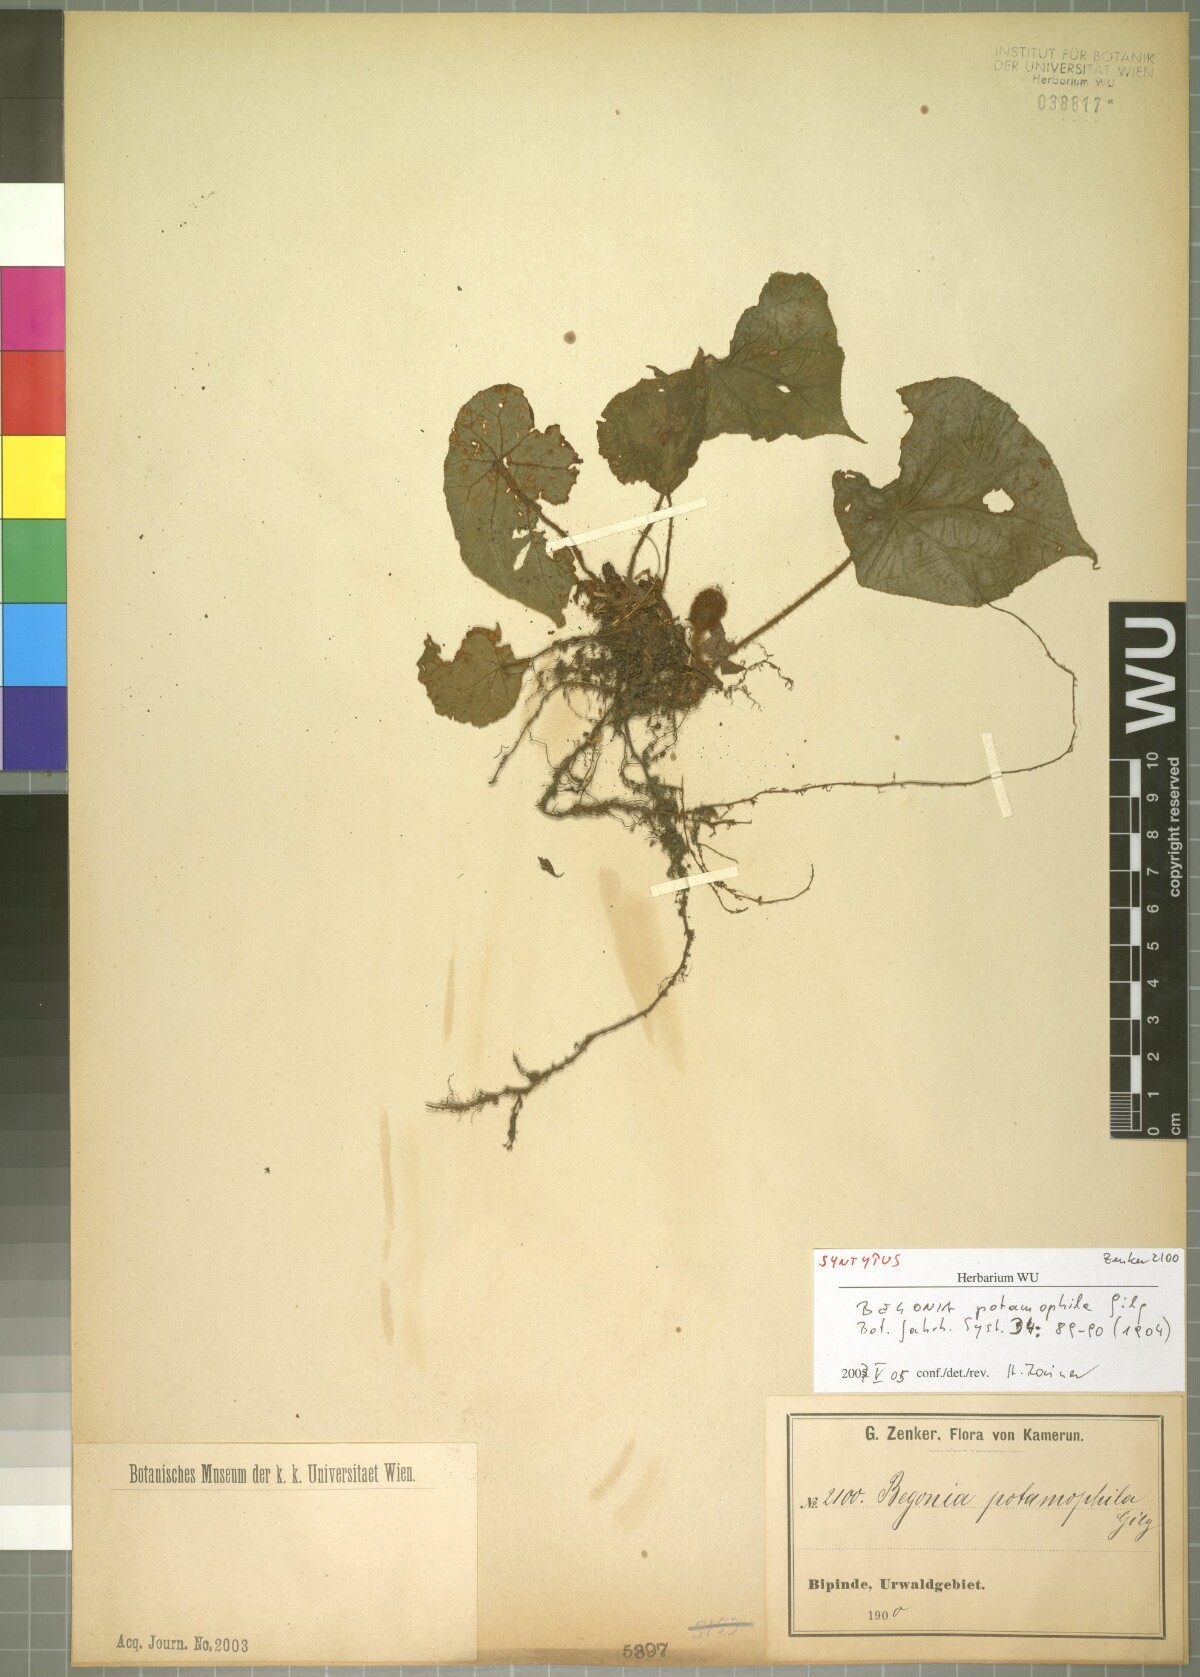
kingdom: Plantae
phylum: Tracheophyta
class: Magnoliopsida
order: Cucurbitales
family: Begoniaceae
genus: Begonia
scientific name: Begonia potamophila
